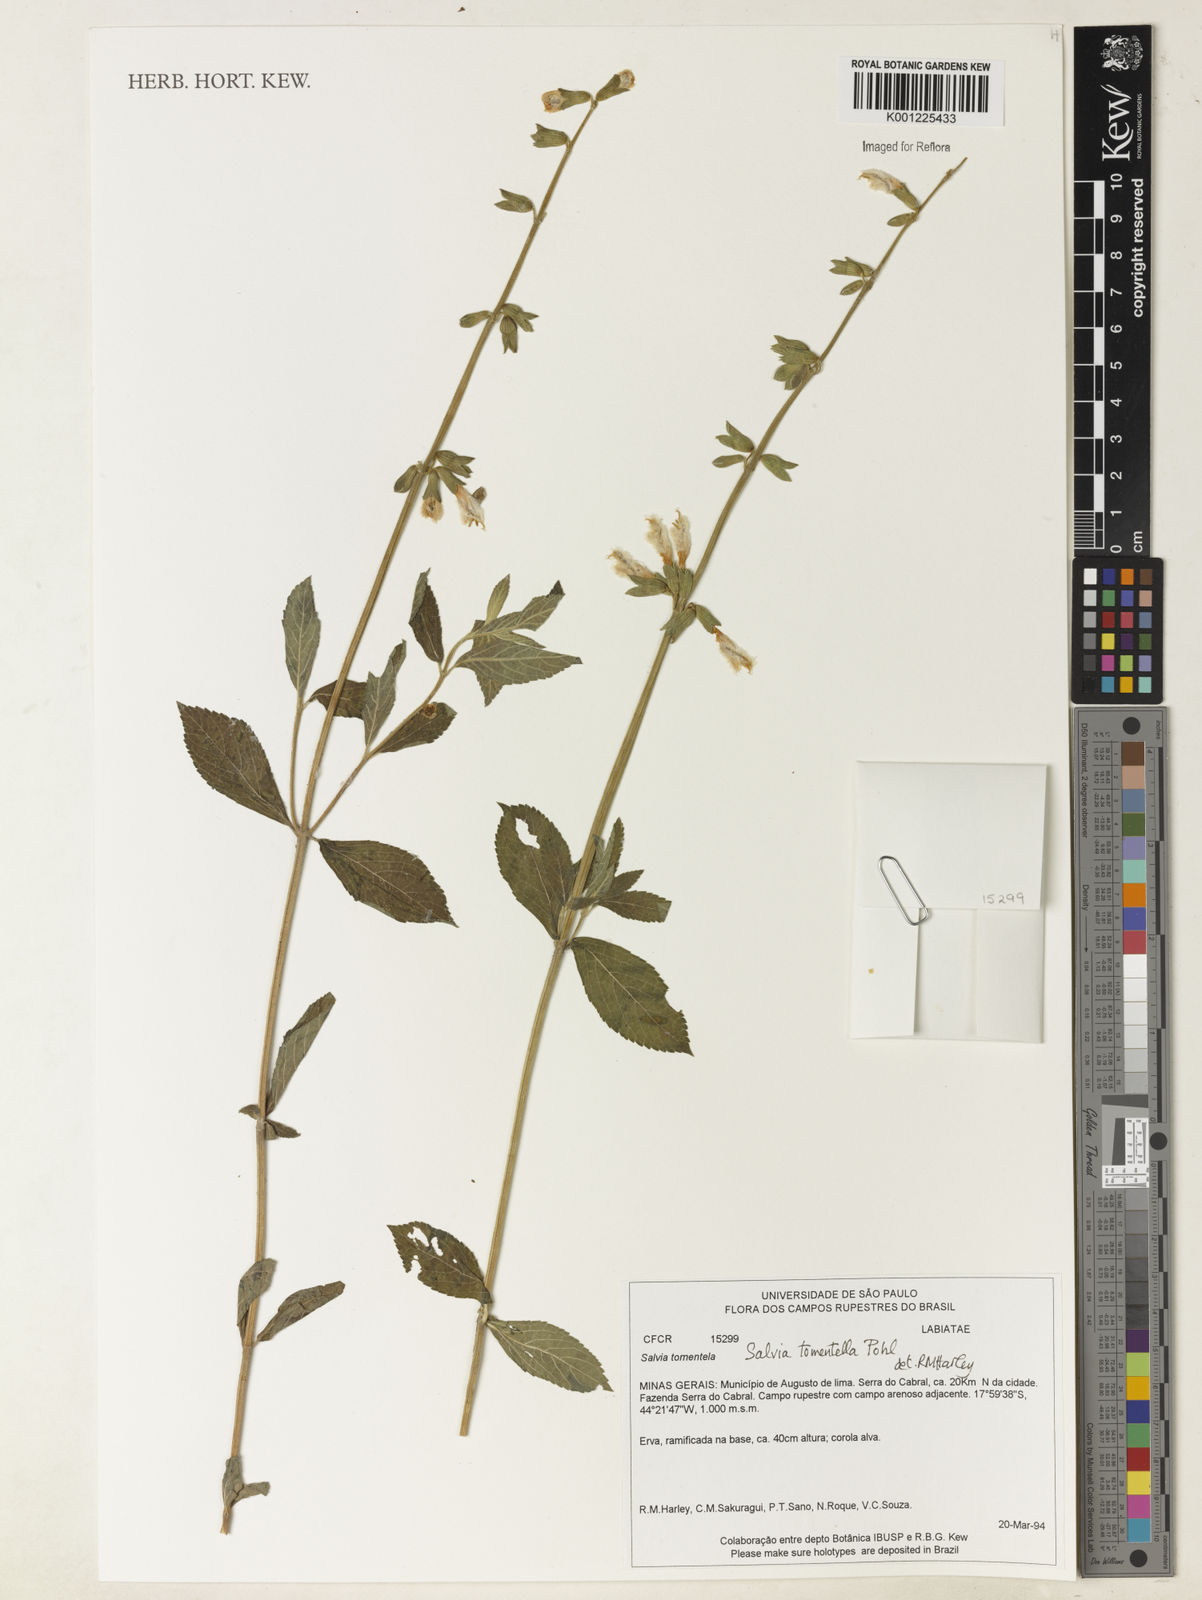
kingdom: Plantae
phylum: Tracheophyta
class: Magnoliopsida
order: Lamiales
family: Lamiaceae
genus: Salvia
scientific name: Salvia tomentella
